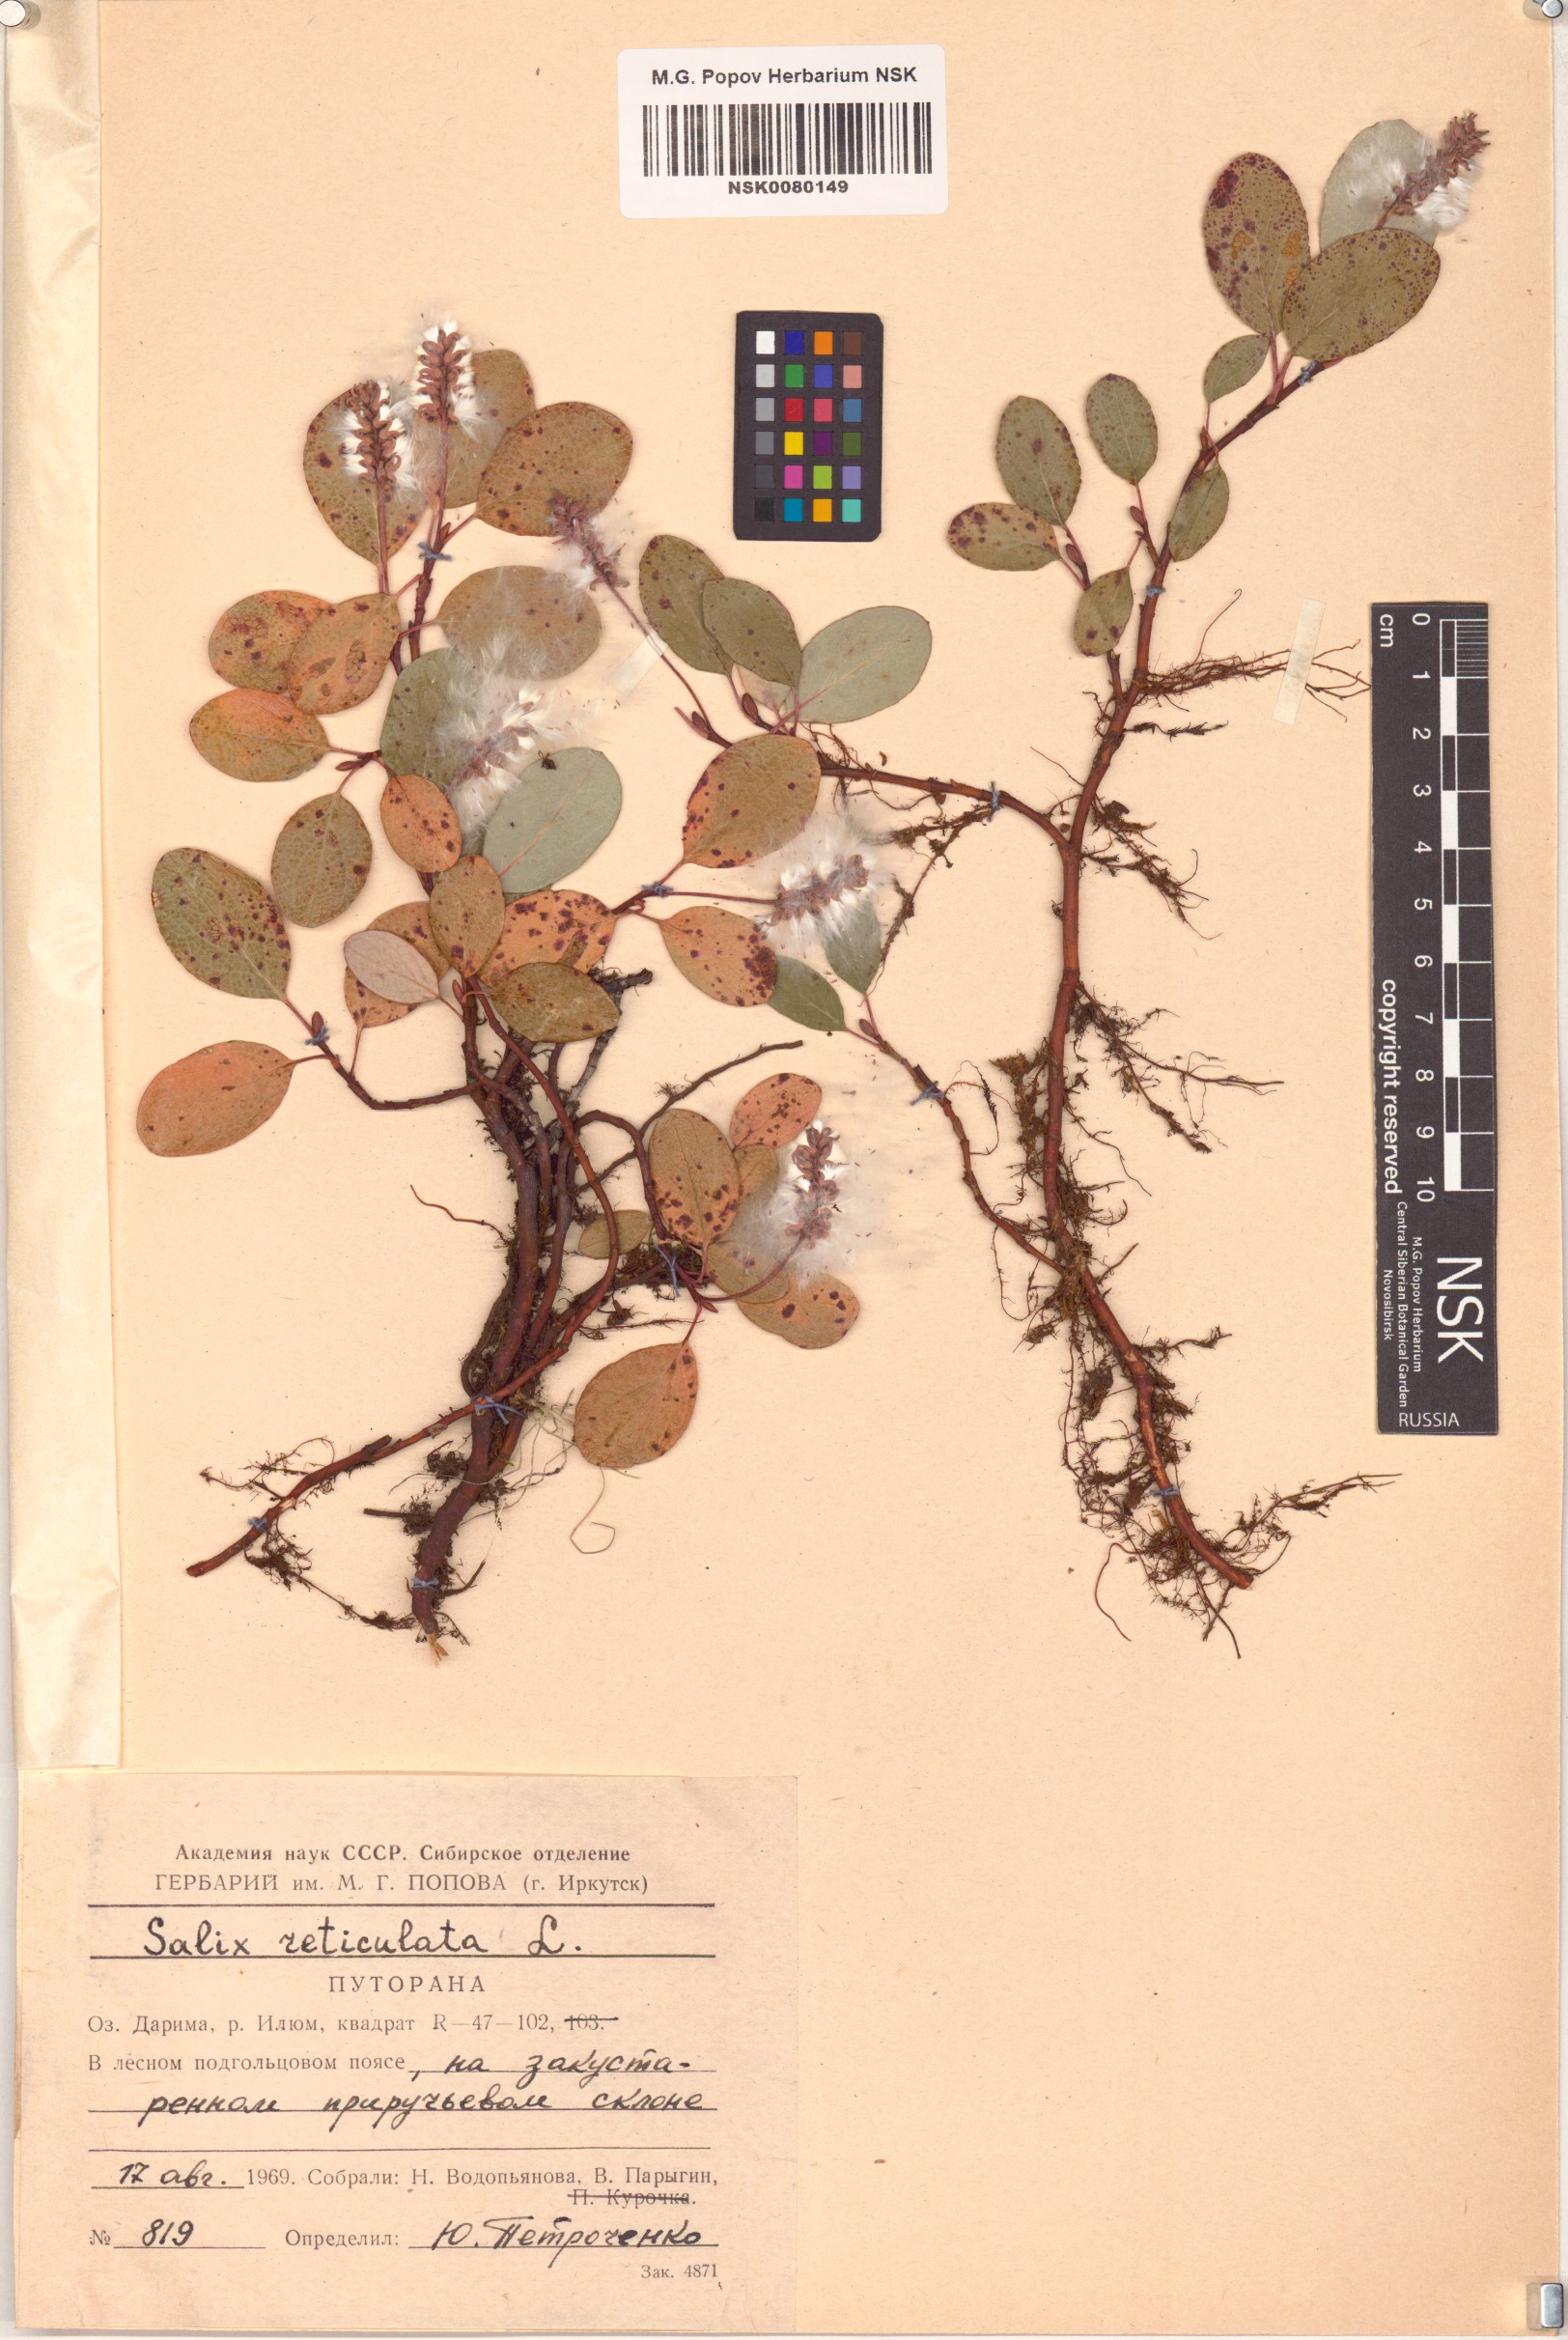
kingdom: Plantae
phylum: Tracheophyta
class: Magnoliopsida
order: Malpighiales
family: Salicaceae
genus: Salix
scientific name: Salix reticulata
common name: Net-leaved willow
